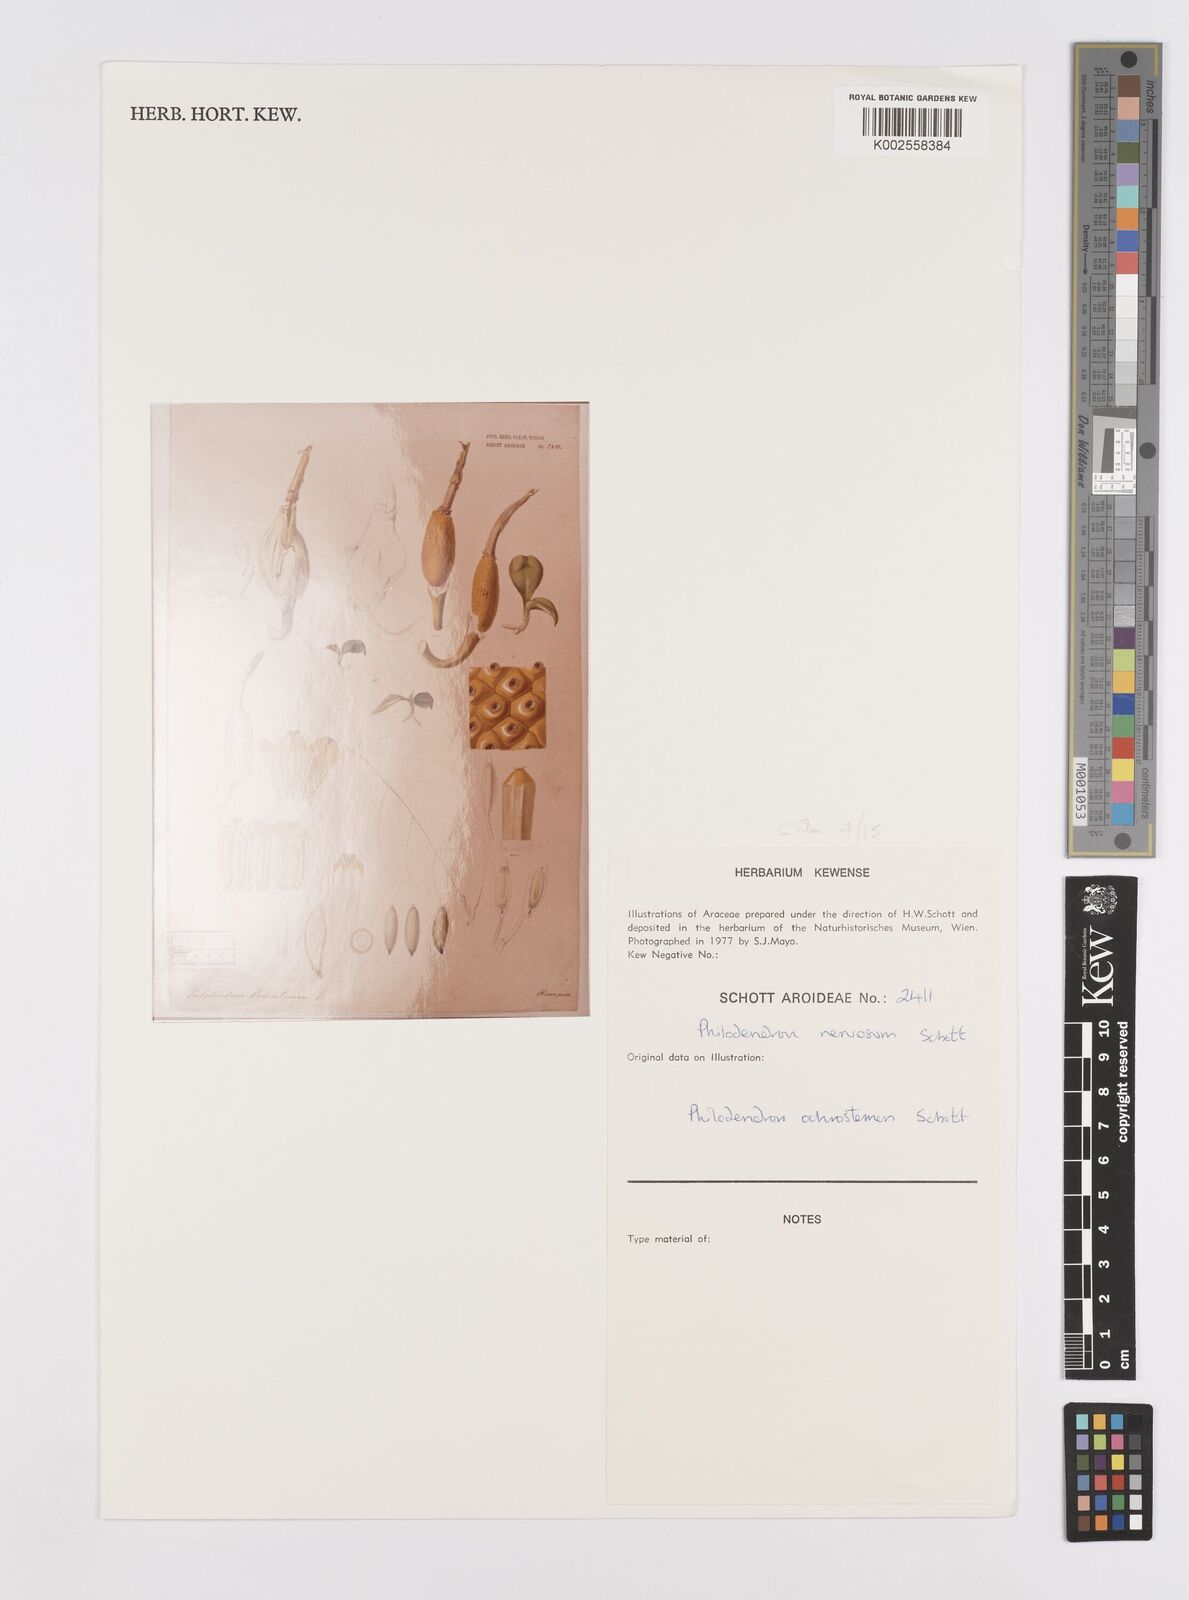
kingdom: Plantae
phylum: Tracheophyta
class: Liliopsida
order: Alismatales
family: Araceae
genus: Philodendron
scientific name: Philodendron ochrostemon
